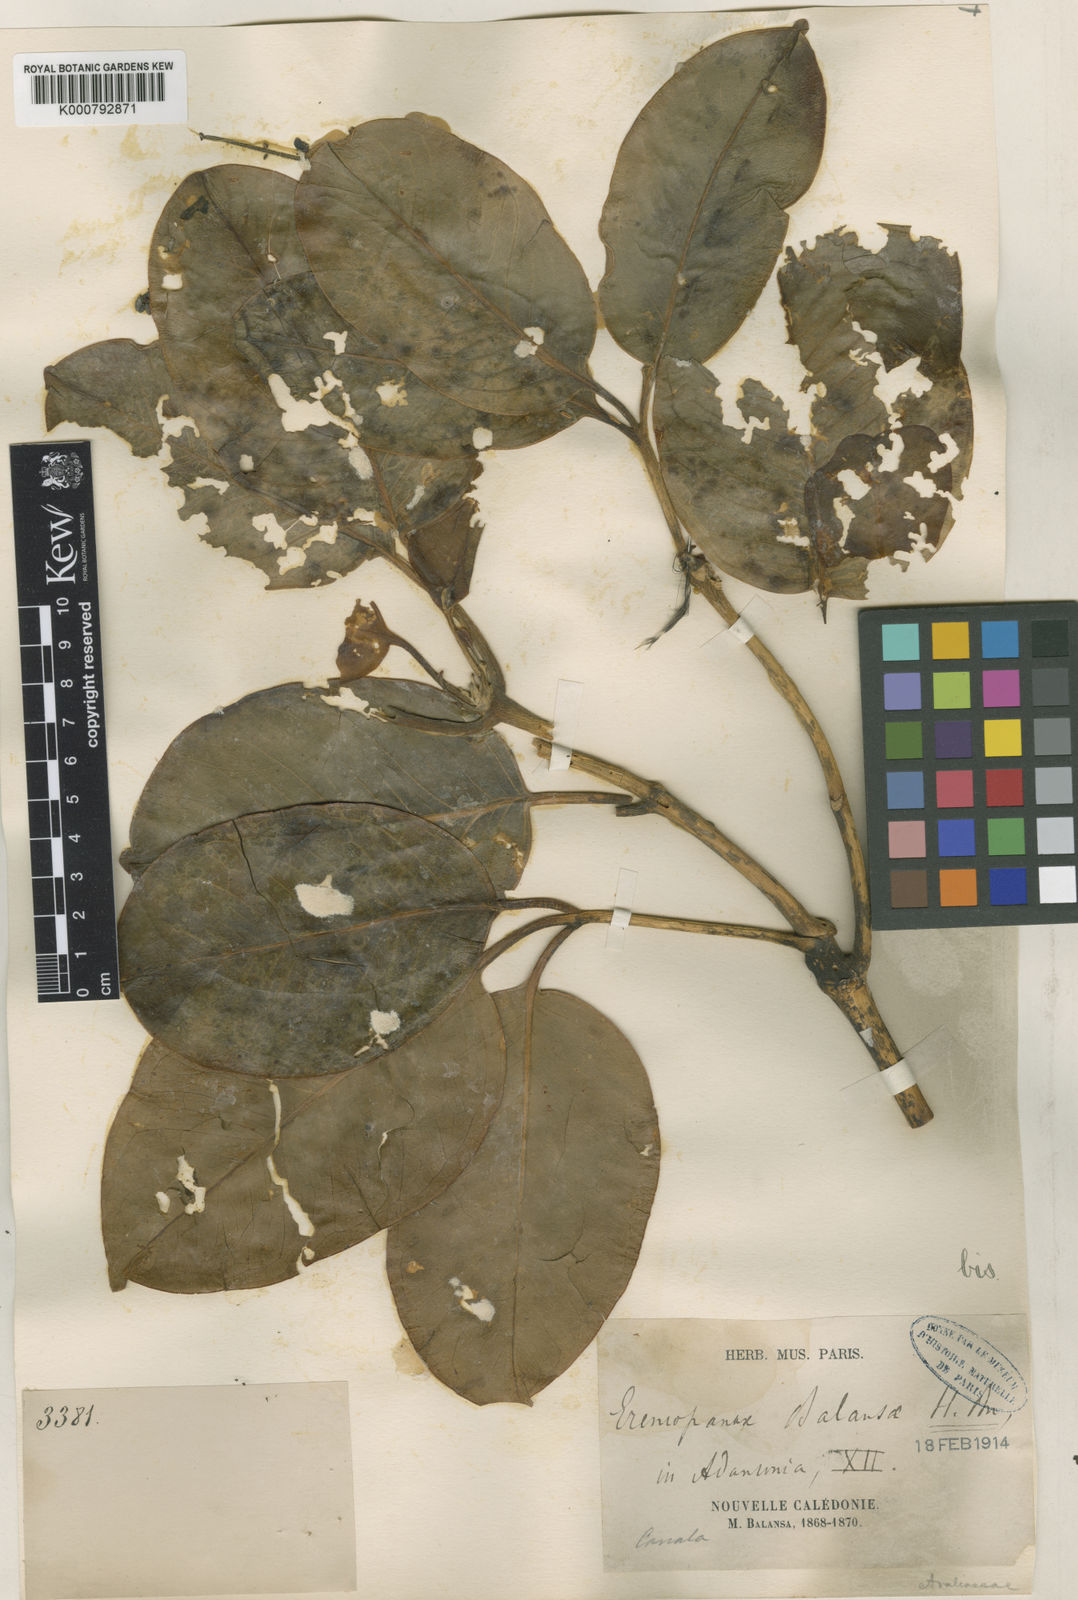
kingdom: Plantae
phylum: Tracheophyta
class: Magnoliopsida
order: Apiales
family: Araliaceae
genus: Polyscias
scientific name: Polyscias vieillardii
